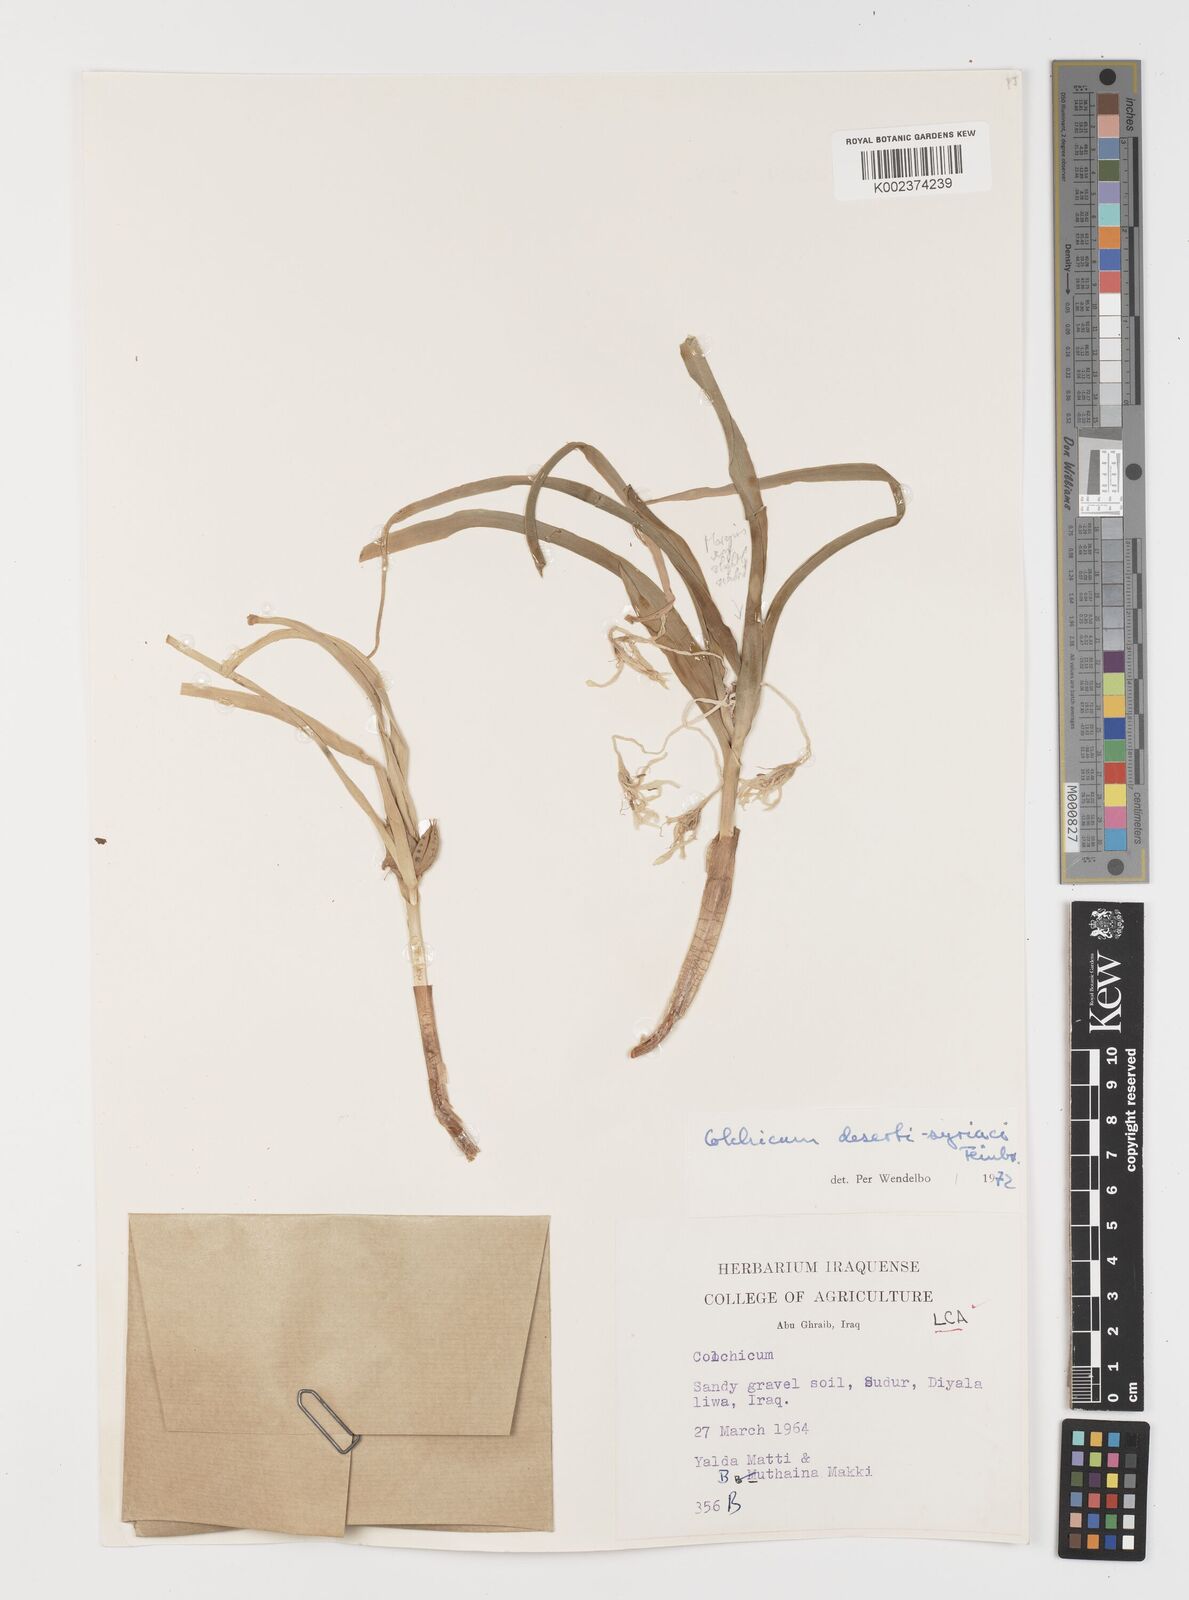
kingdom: Plantae
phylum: Tracheophyta
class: Liliopsida
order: Liliales
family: Colchicaceae
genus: Colchicum
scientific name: Colchicum schimperi
